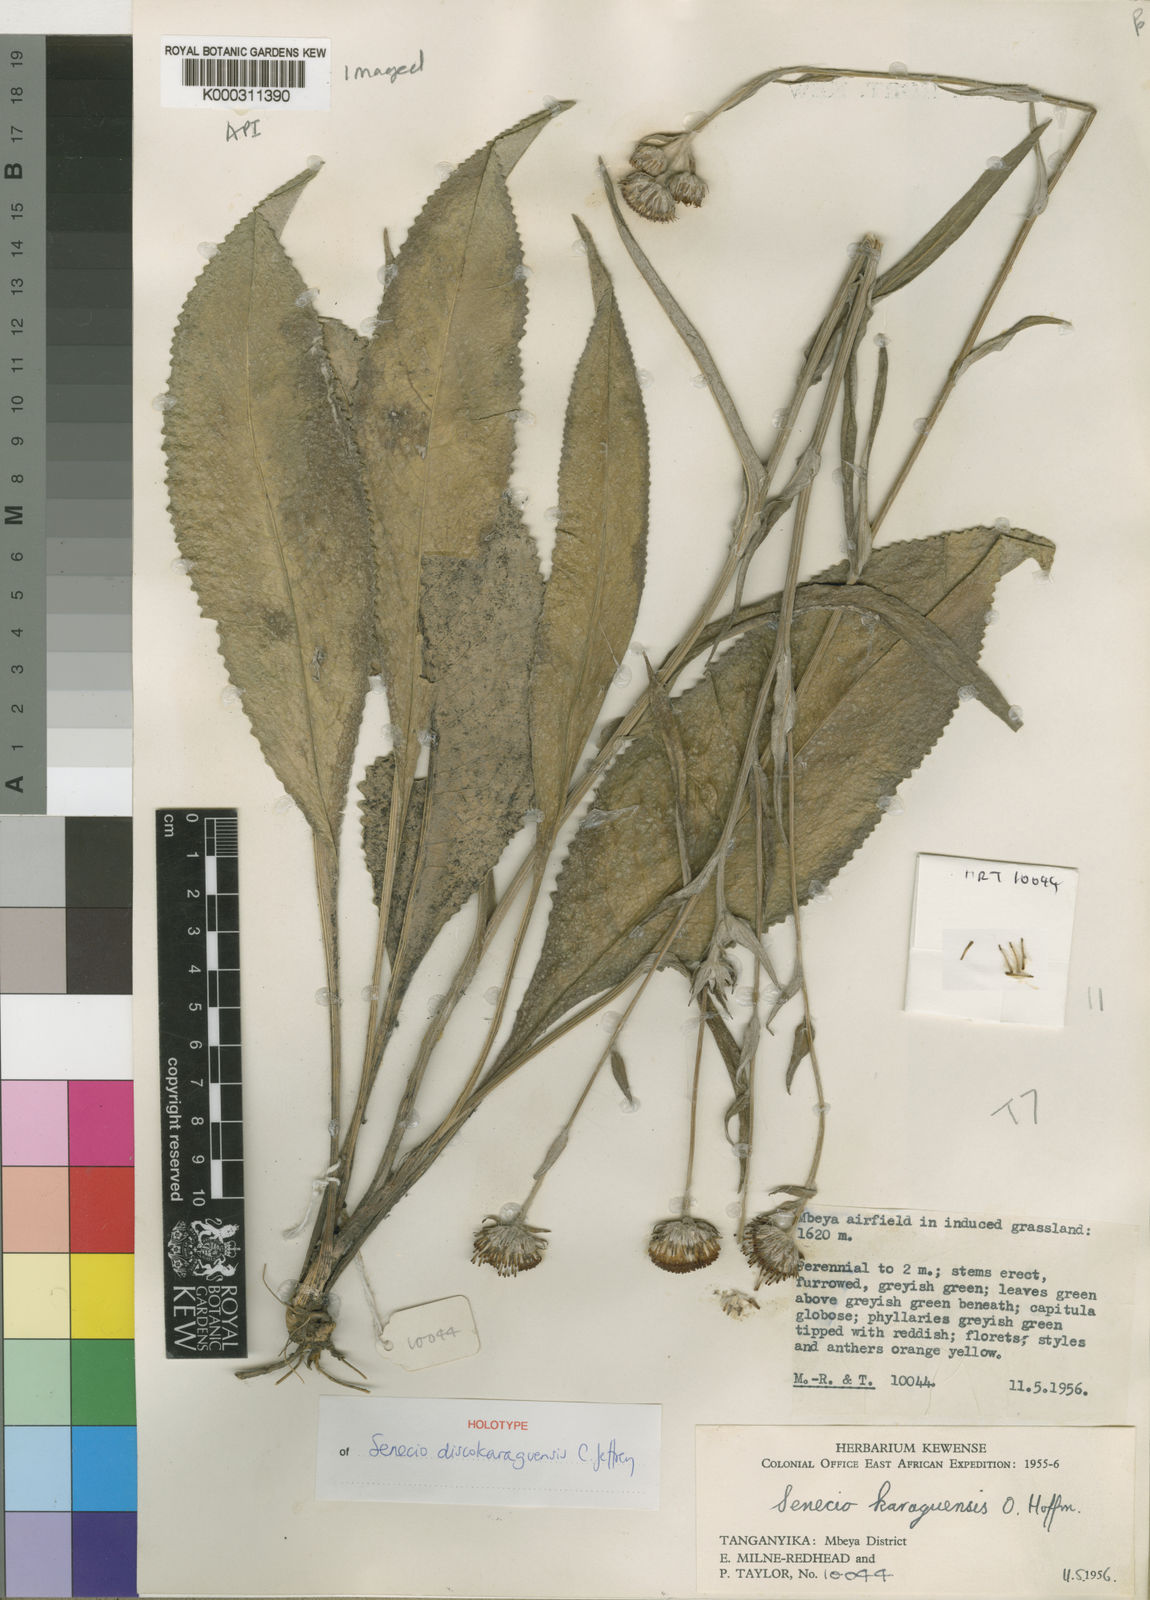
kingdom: Plantae
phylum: Tracheophyta
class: Magnoliopsida
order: Asterales
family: Asteraceae
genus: Senecio
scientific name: Senecio discokaraguensis
